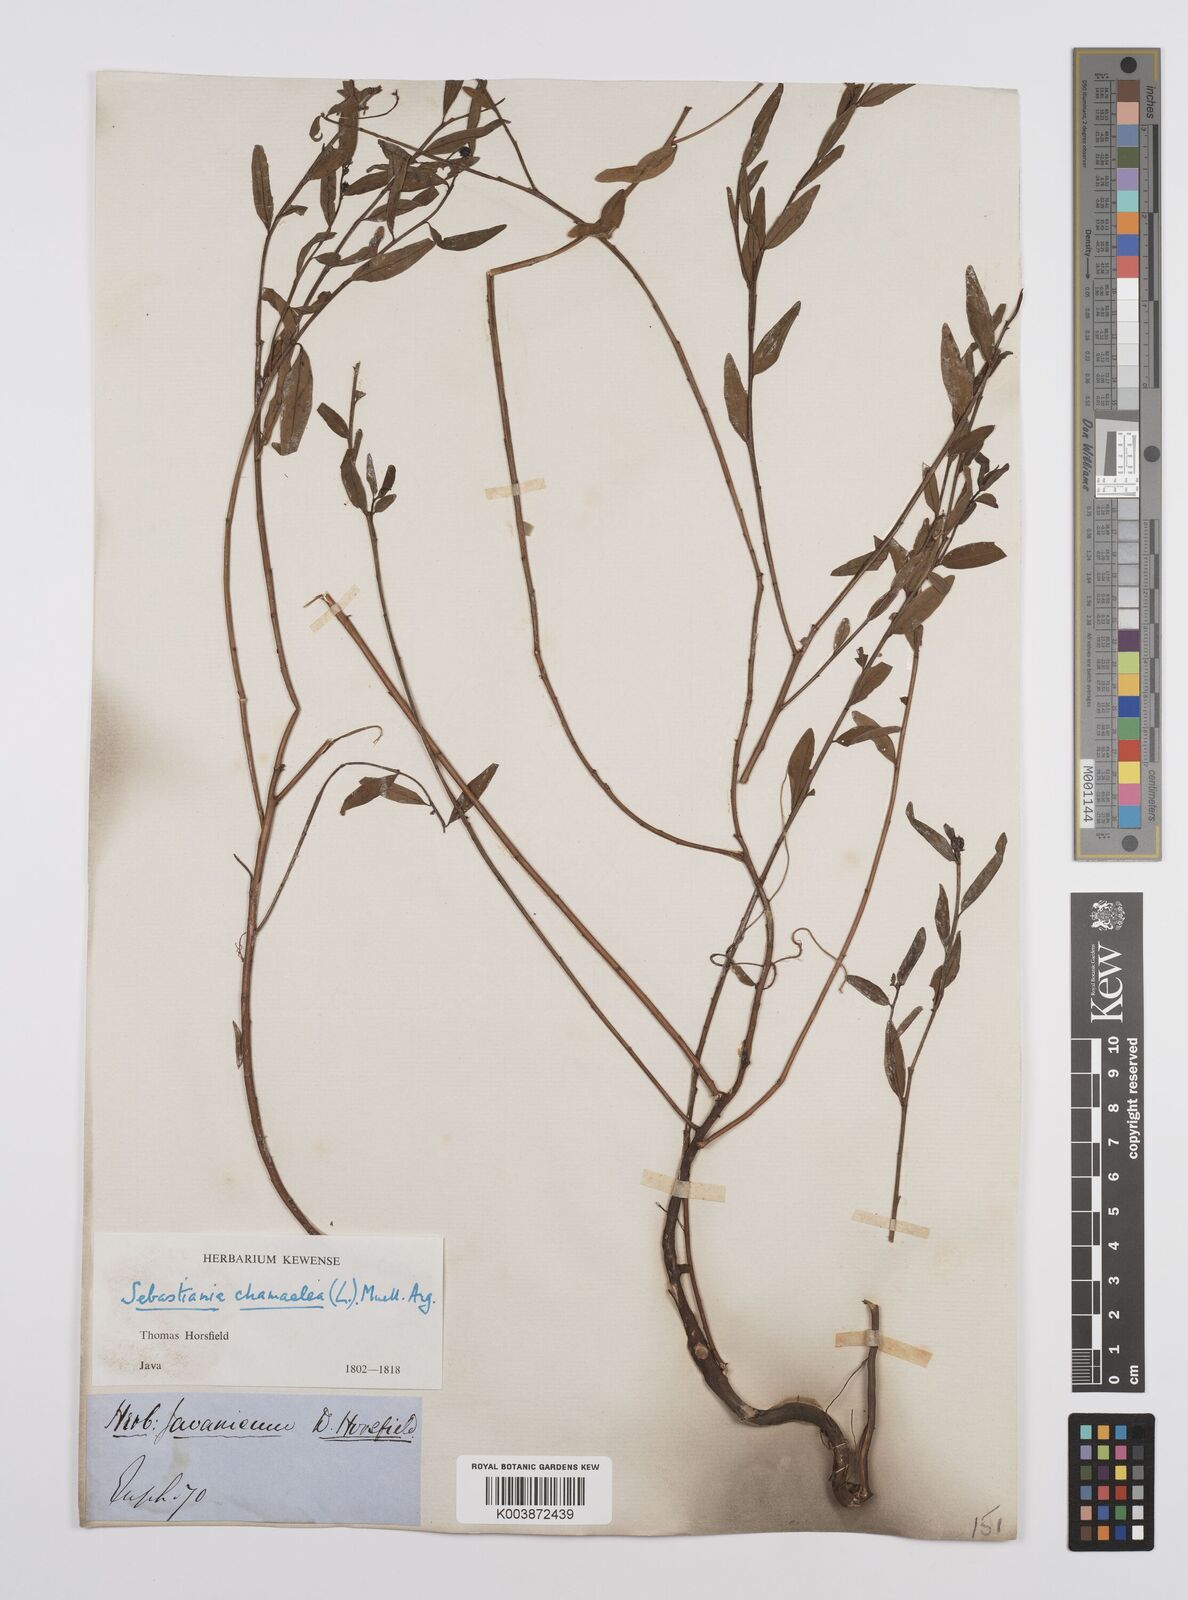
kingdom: Plantae
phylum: Tracheophyta
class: Magnoliopsida
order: Malpighiales
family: Euphorbiaceae
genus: Microstachys
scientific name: Microstachys chamaelea
